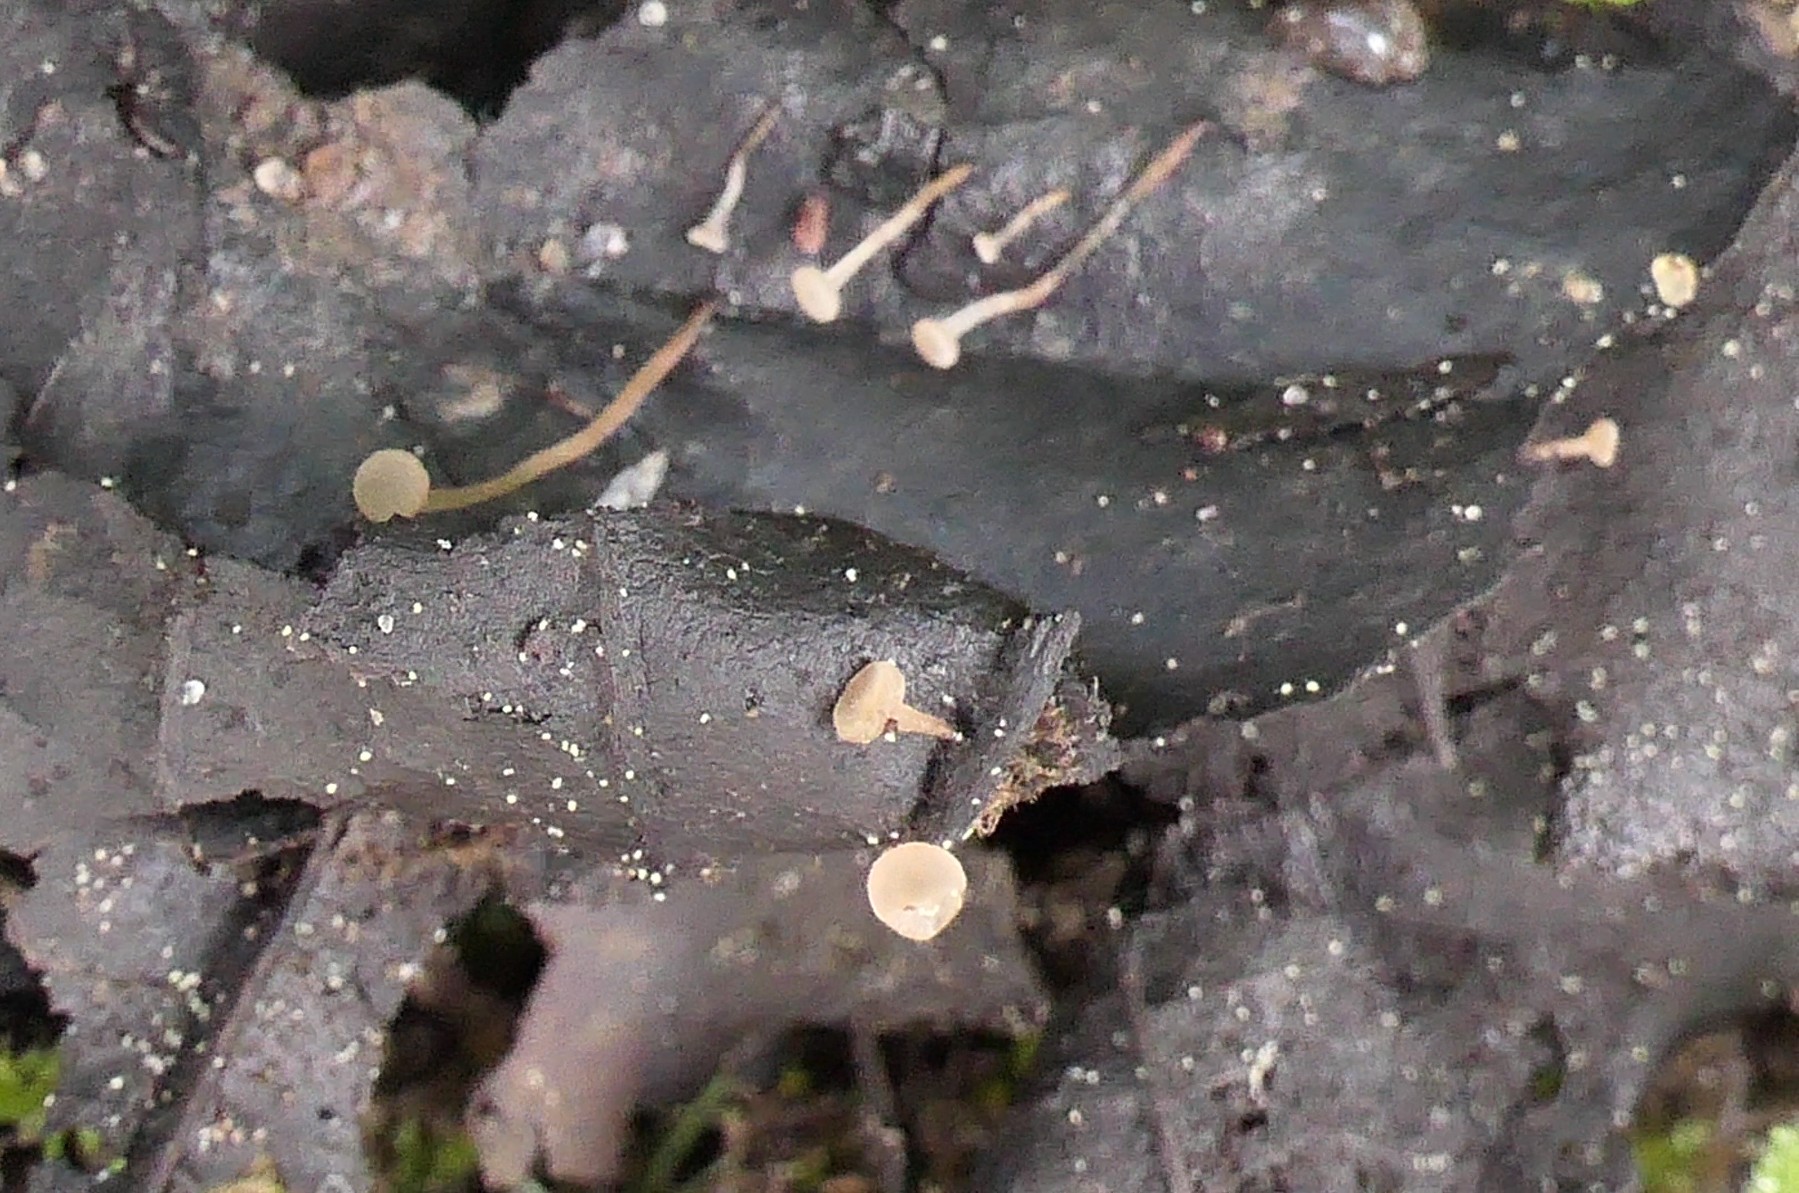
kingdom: Fungi
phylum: Ascomycota
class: Leotiomycetes
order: Helotiales
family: Rutstroemiaceae
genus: Rutstroemia
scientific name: Rutstroemia conformata
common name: elleblads-brunskive
